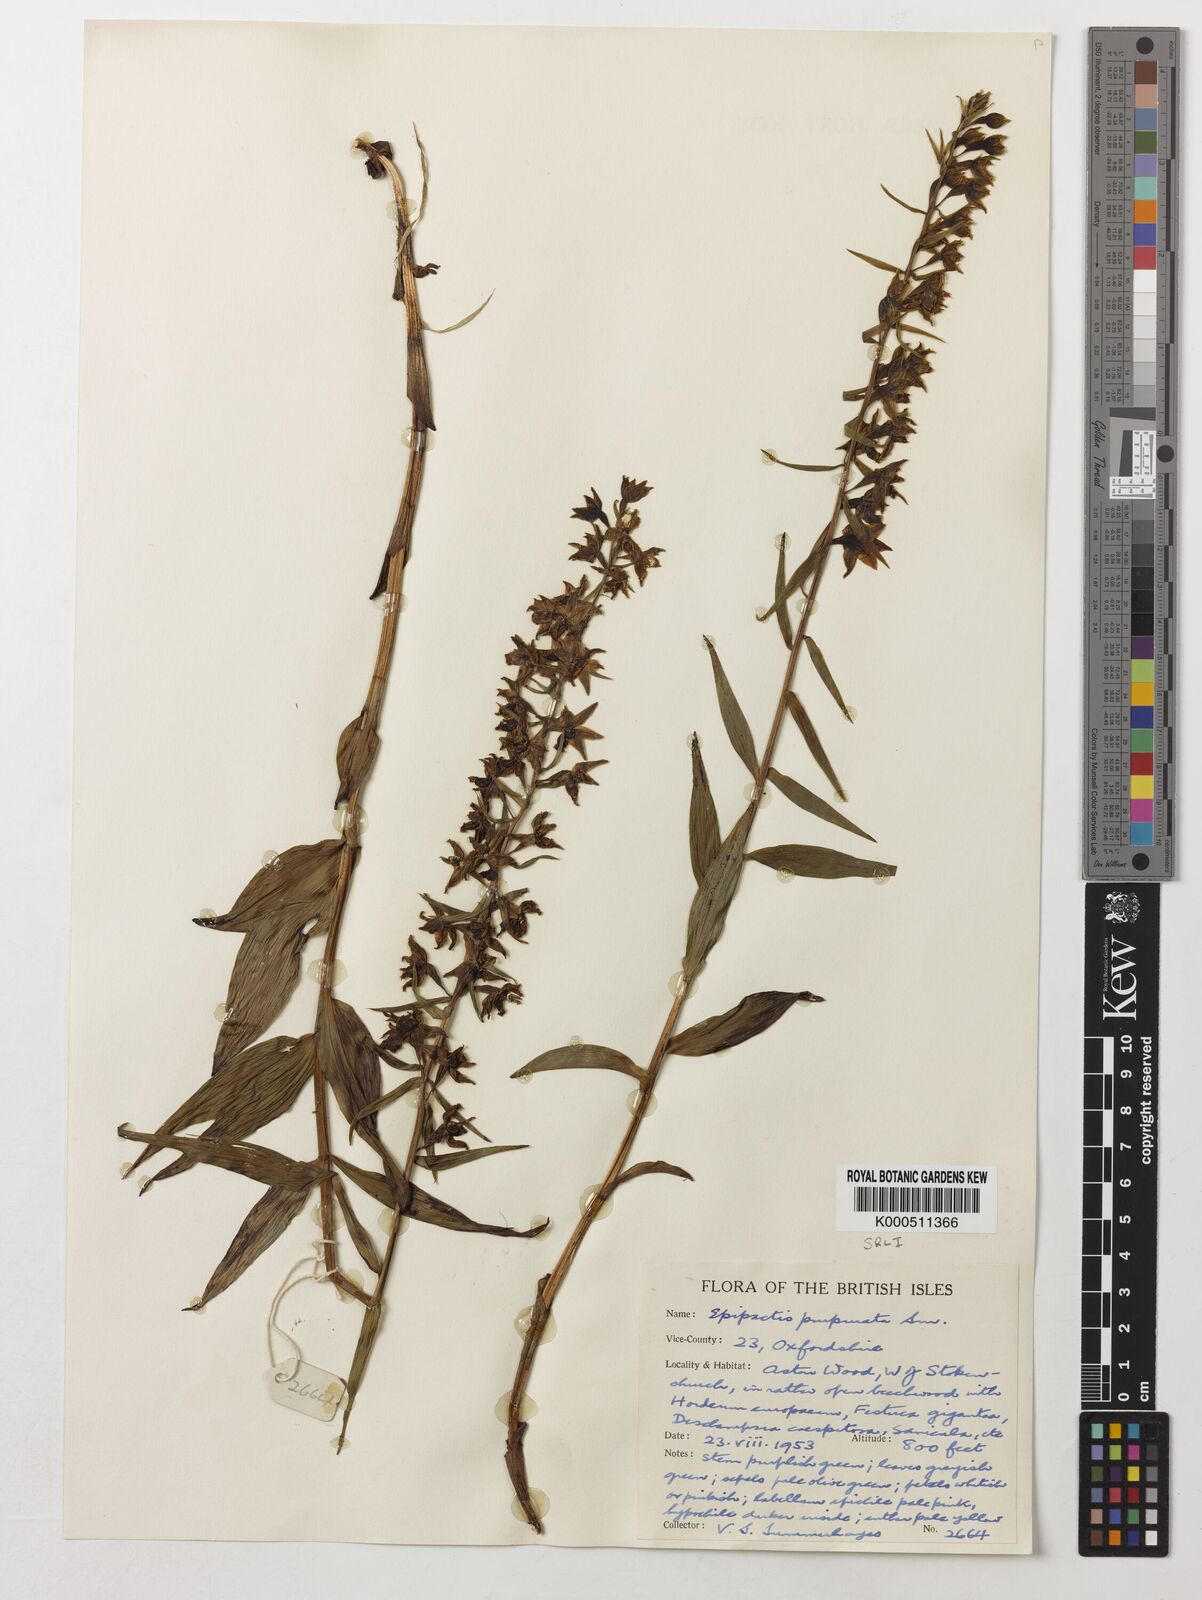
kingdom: Plantae
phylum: Tracheophyta
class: Liliopsida
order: Asparagales
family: Orchidaceae
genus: Epipactis
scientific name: Epipactis purpurata
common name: Violet helleborine
